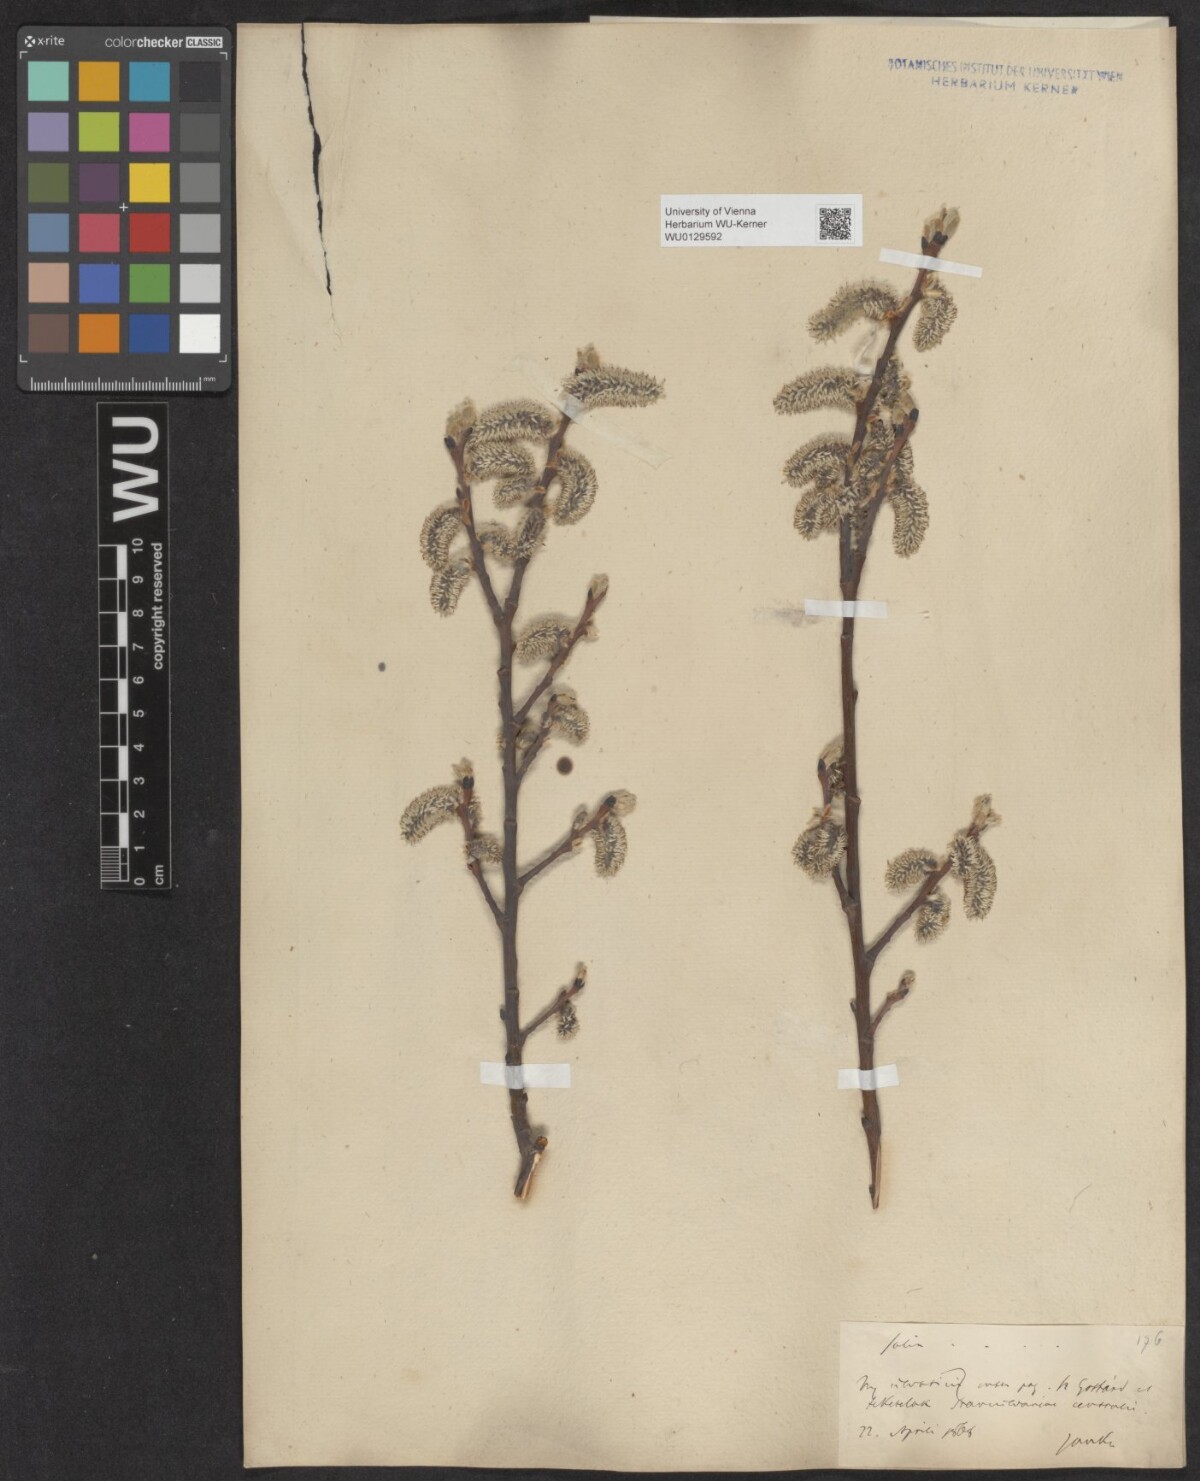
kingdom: Plantae
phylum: Tracheophyta
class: Magnoliopsida
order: Malpighiales
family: Salicaceae
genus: Salix
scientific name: Salix caprea
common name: Goat willow
